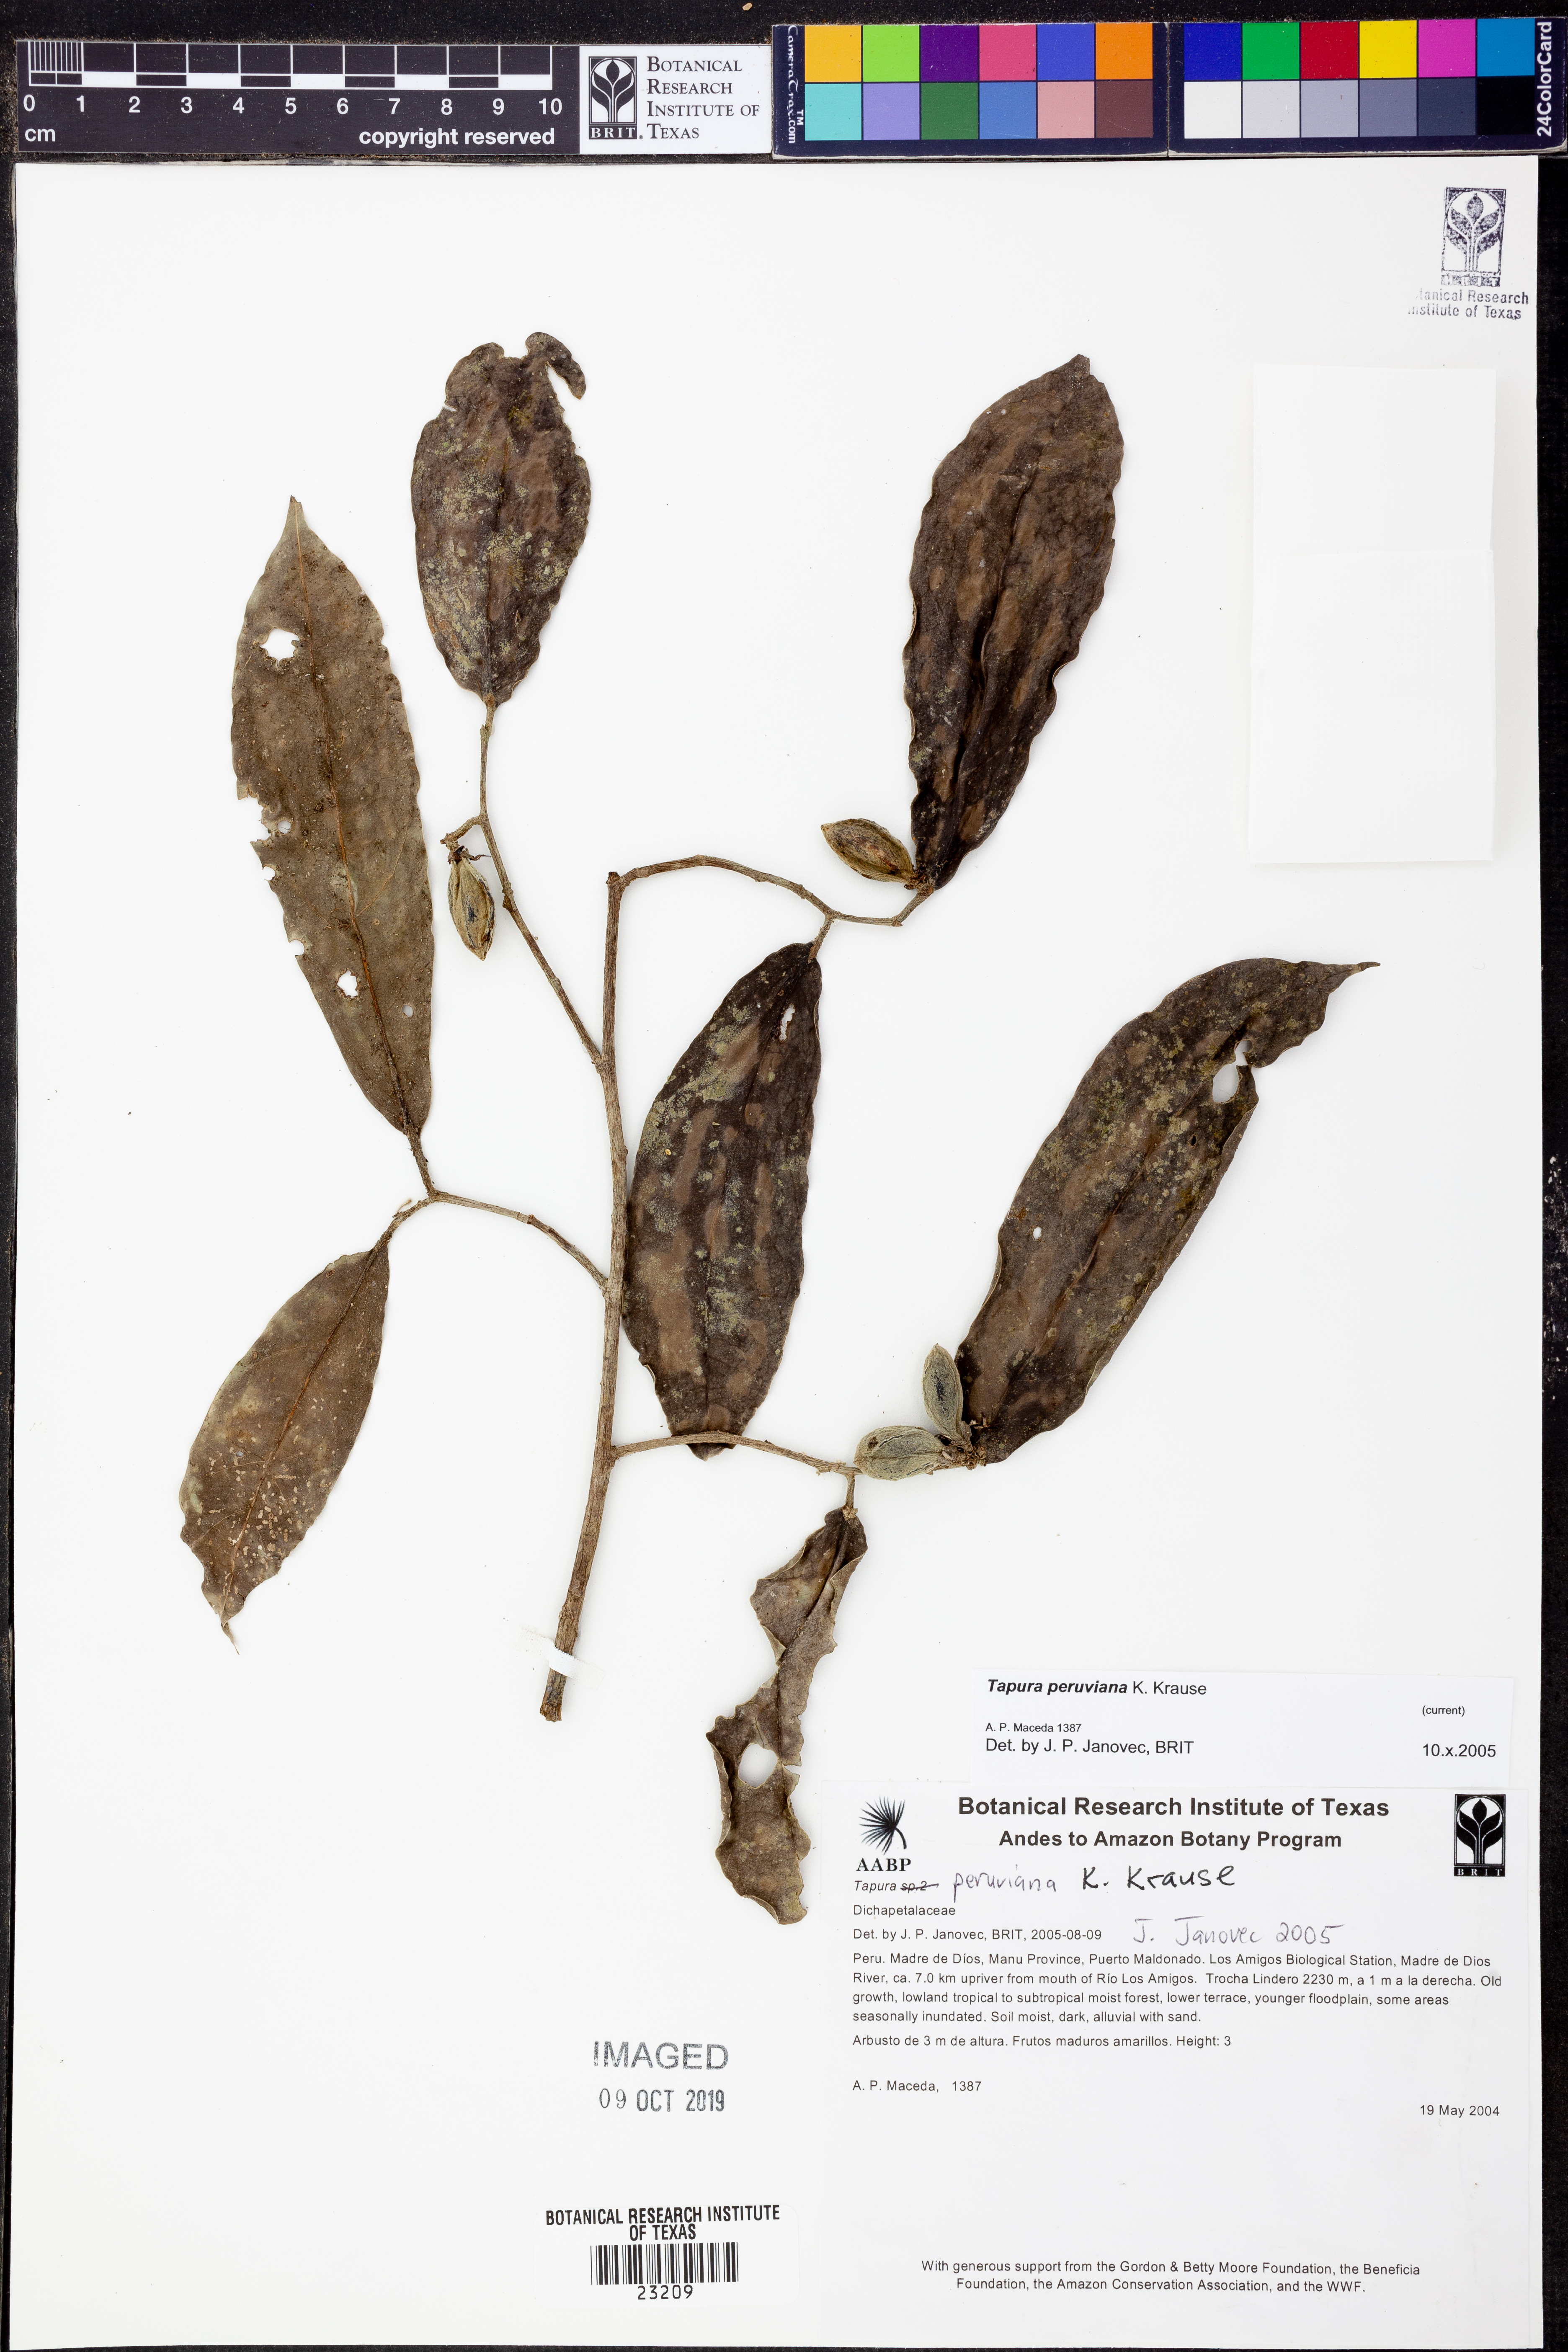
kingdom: Plantae
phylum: Tracheophyta
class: Magnoliopsida
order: Malpighiales
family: Dichapetalaceae
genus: Tapura
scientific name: Tapura
